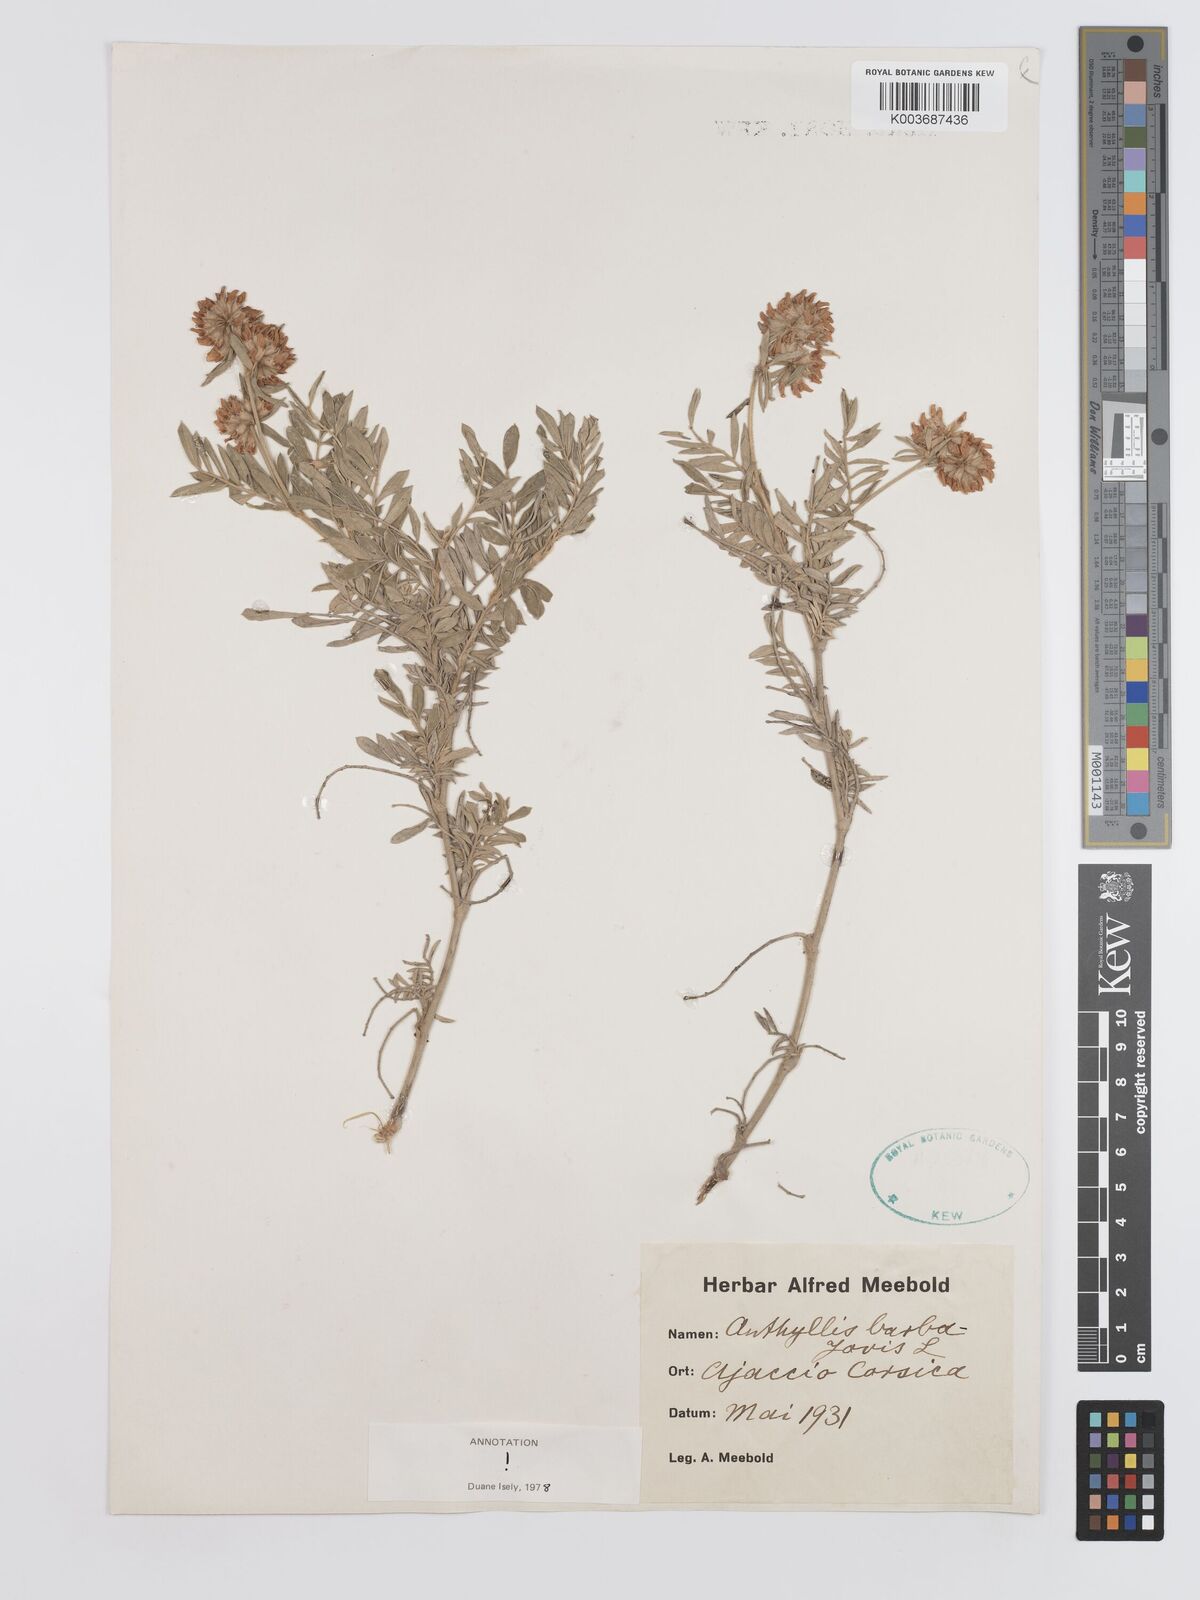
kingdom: Plantae
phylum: Tracheophyta
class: Magnoliopsida
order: Fabales
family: Fabaceae
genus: Anthyllis
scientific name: Anthyllis barba-jovis
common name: Jupiter's-beard
